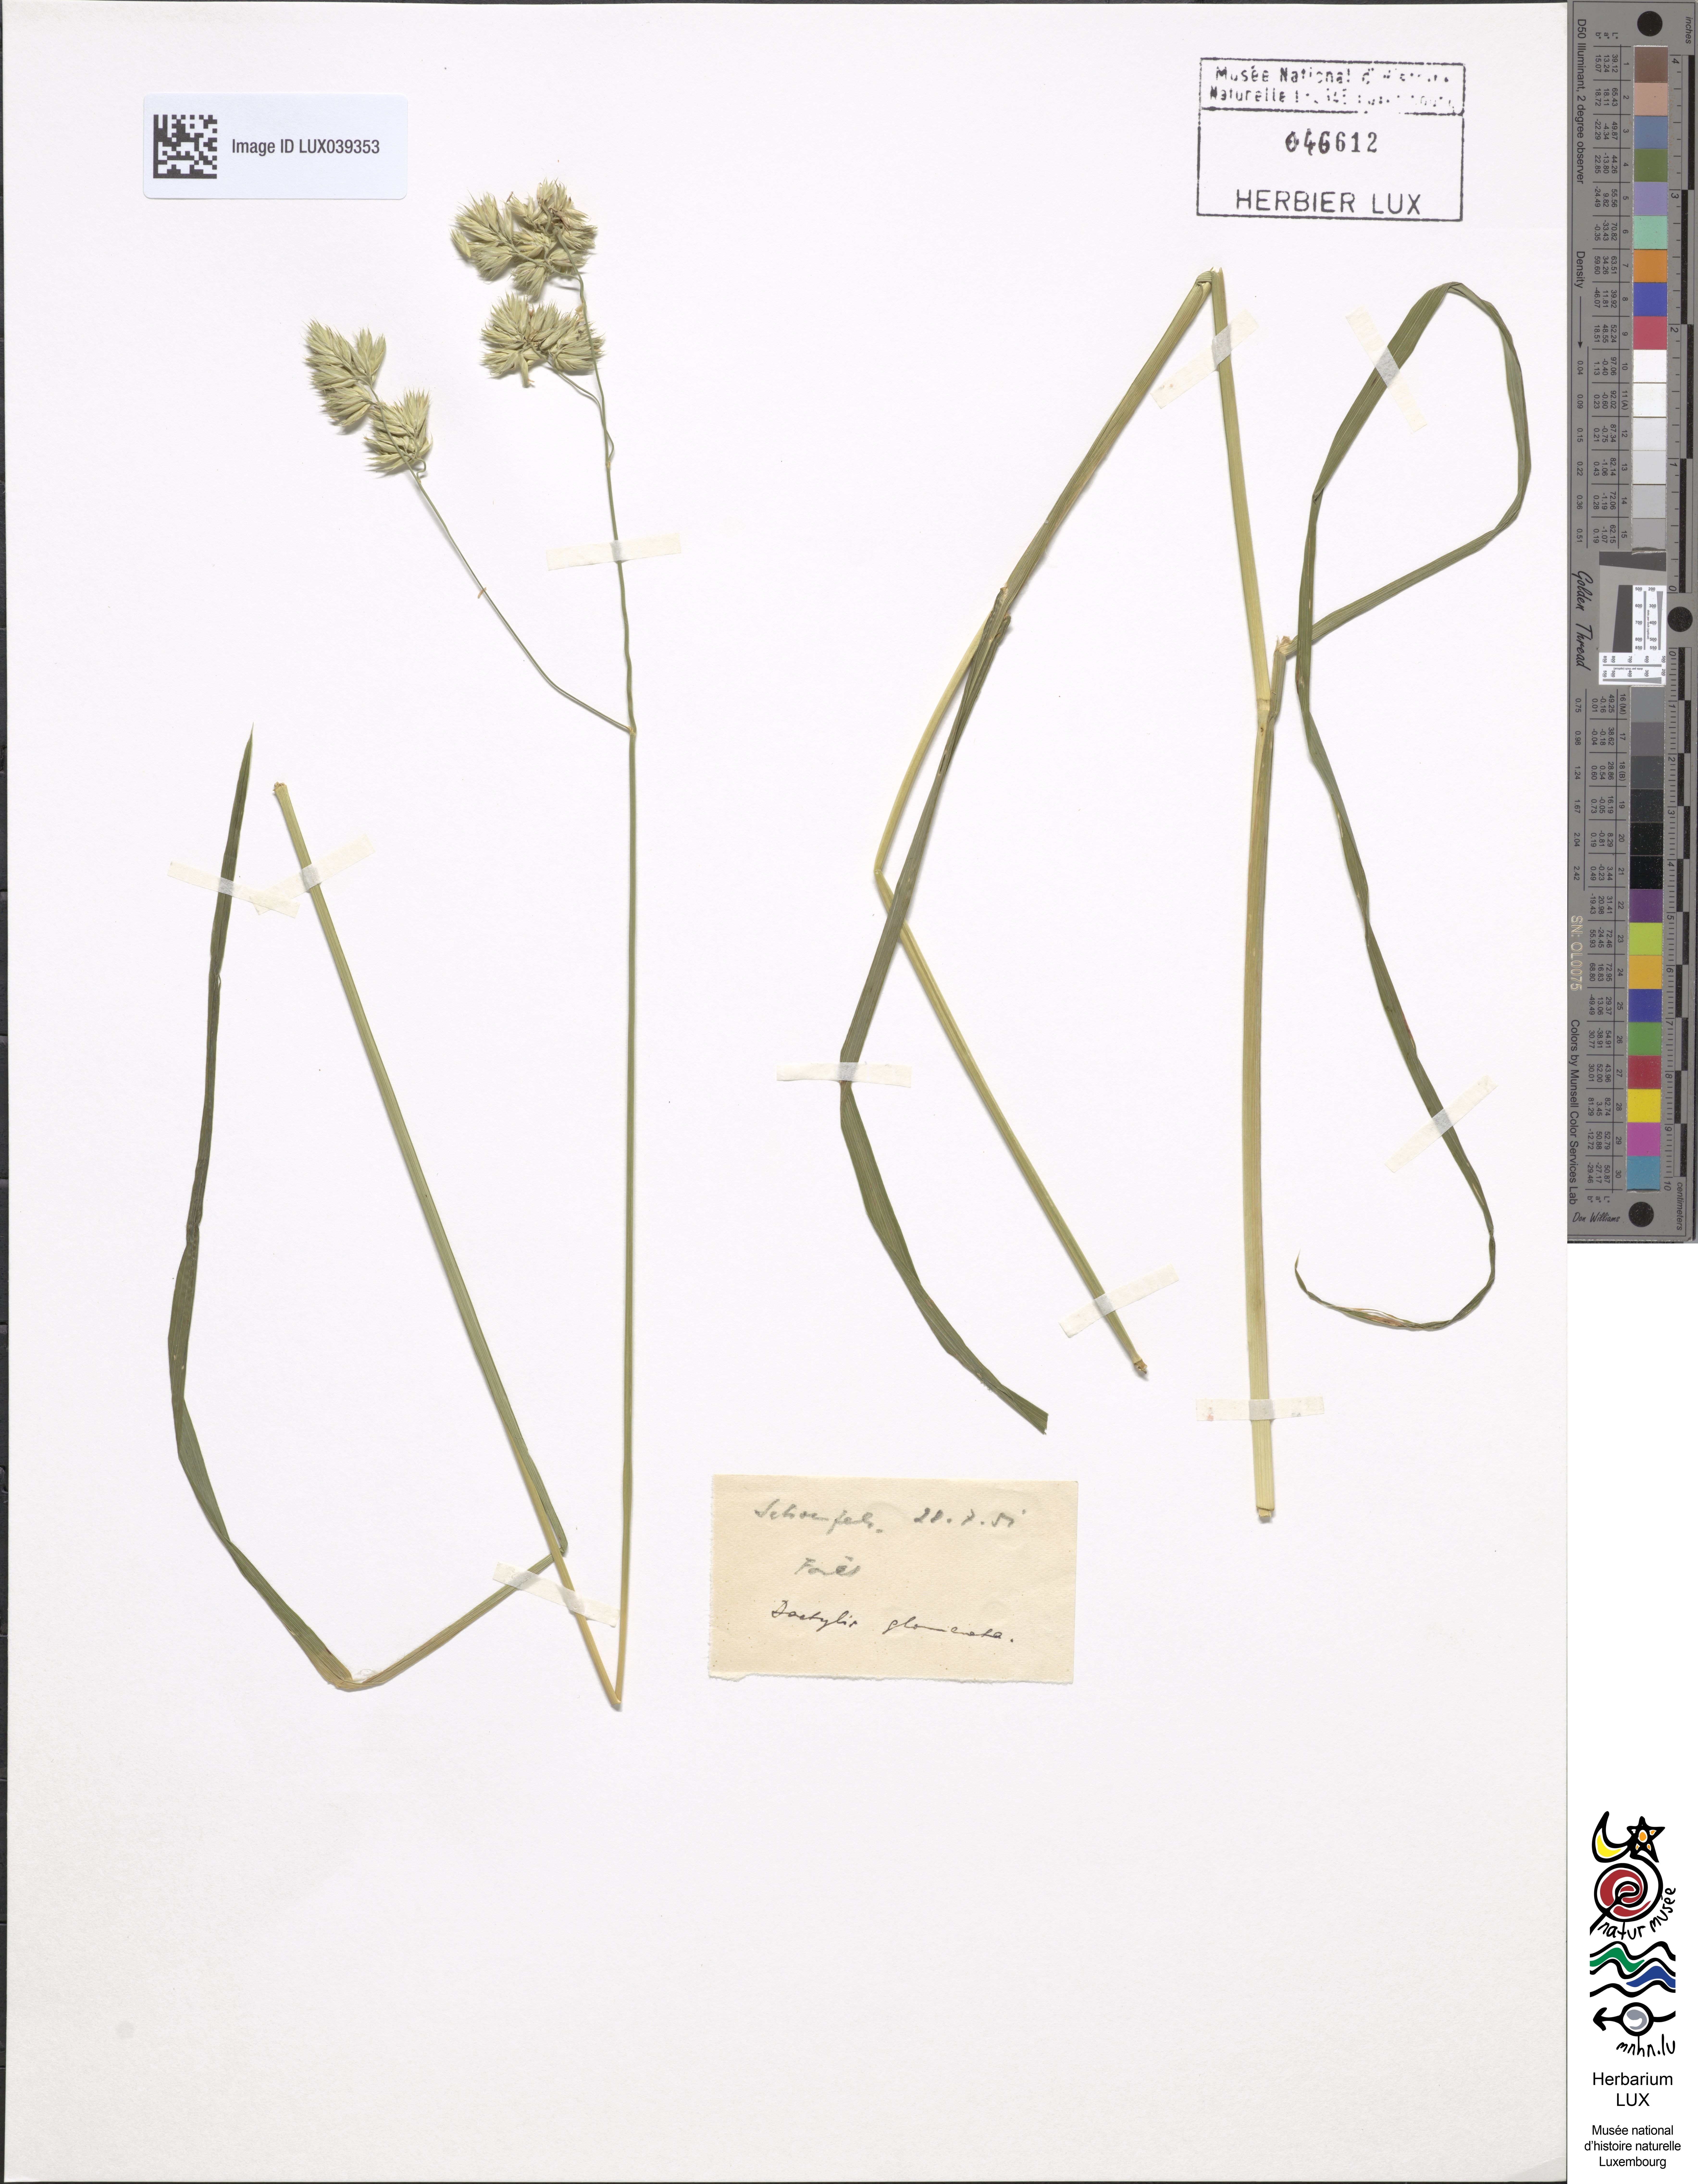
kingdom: Plantae
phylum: Tracheophyta
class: Liliopsida
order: Poales
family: Poaceae
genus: Dactylis
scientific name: Dactylis glomerata
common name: Orchardgrass
